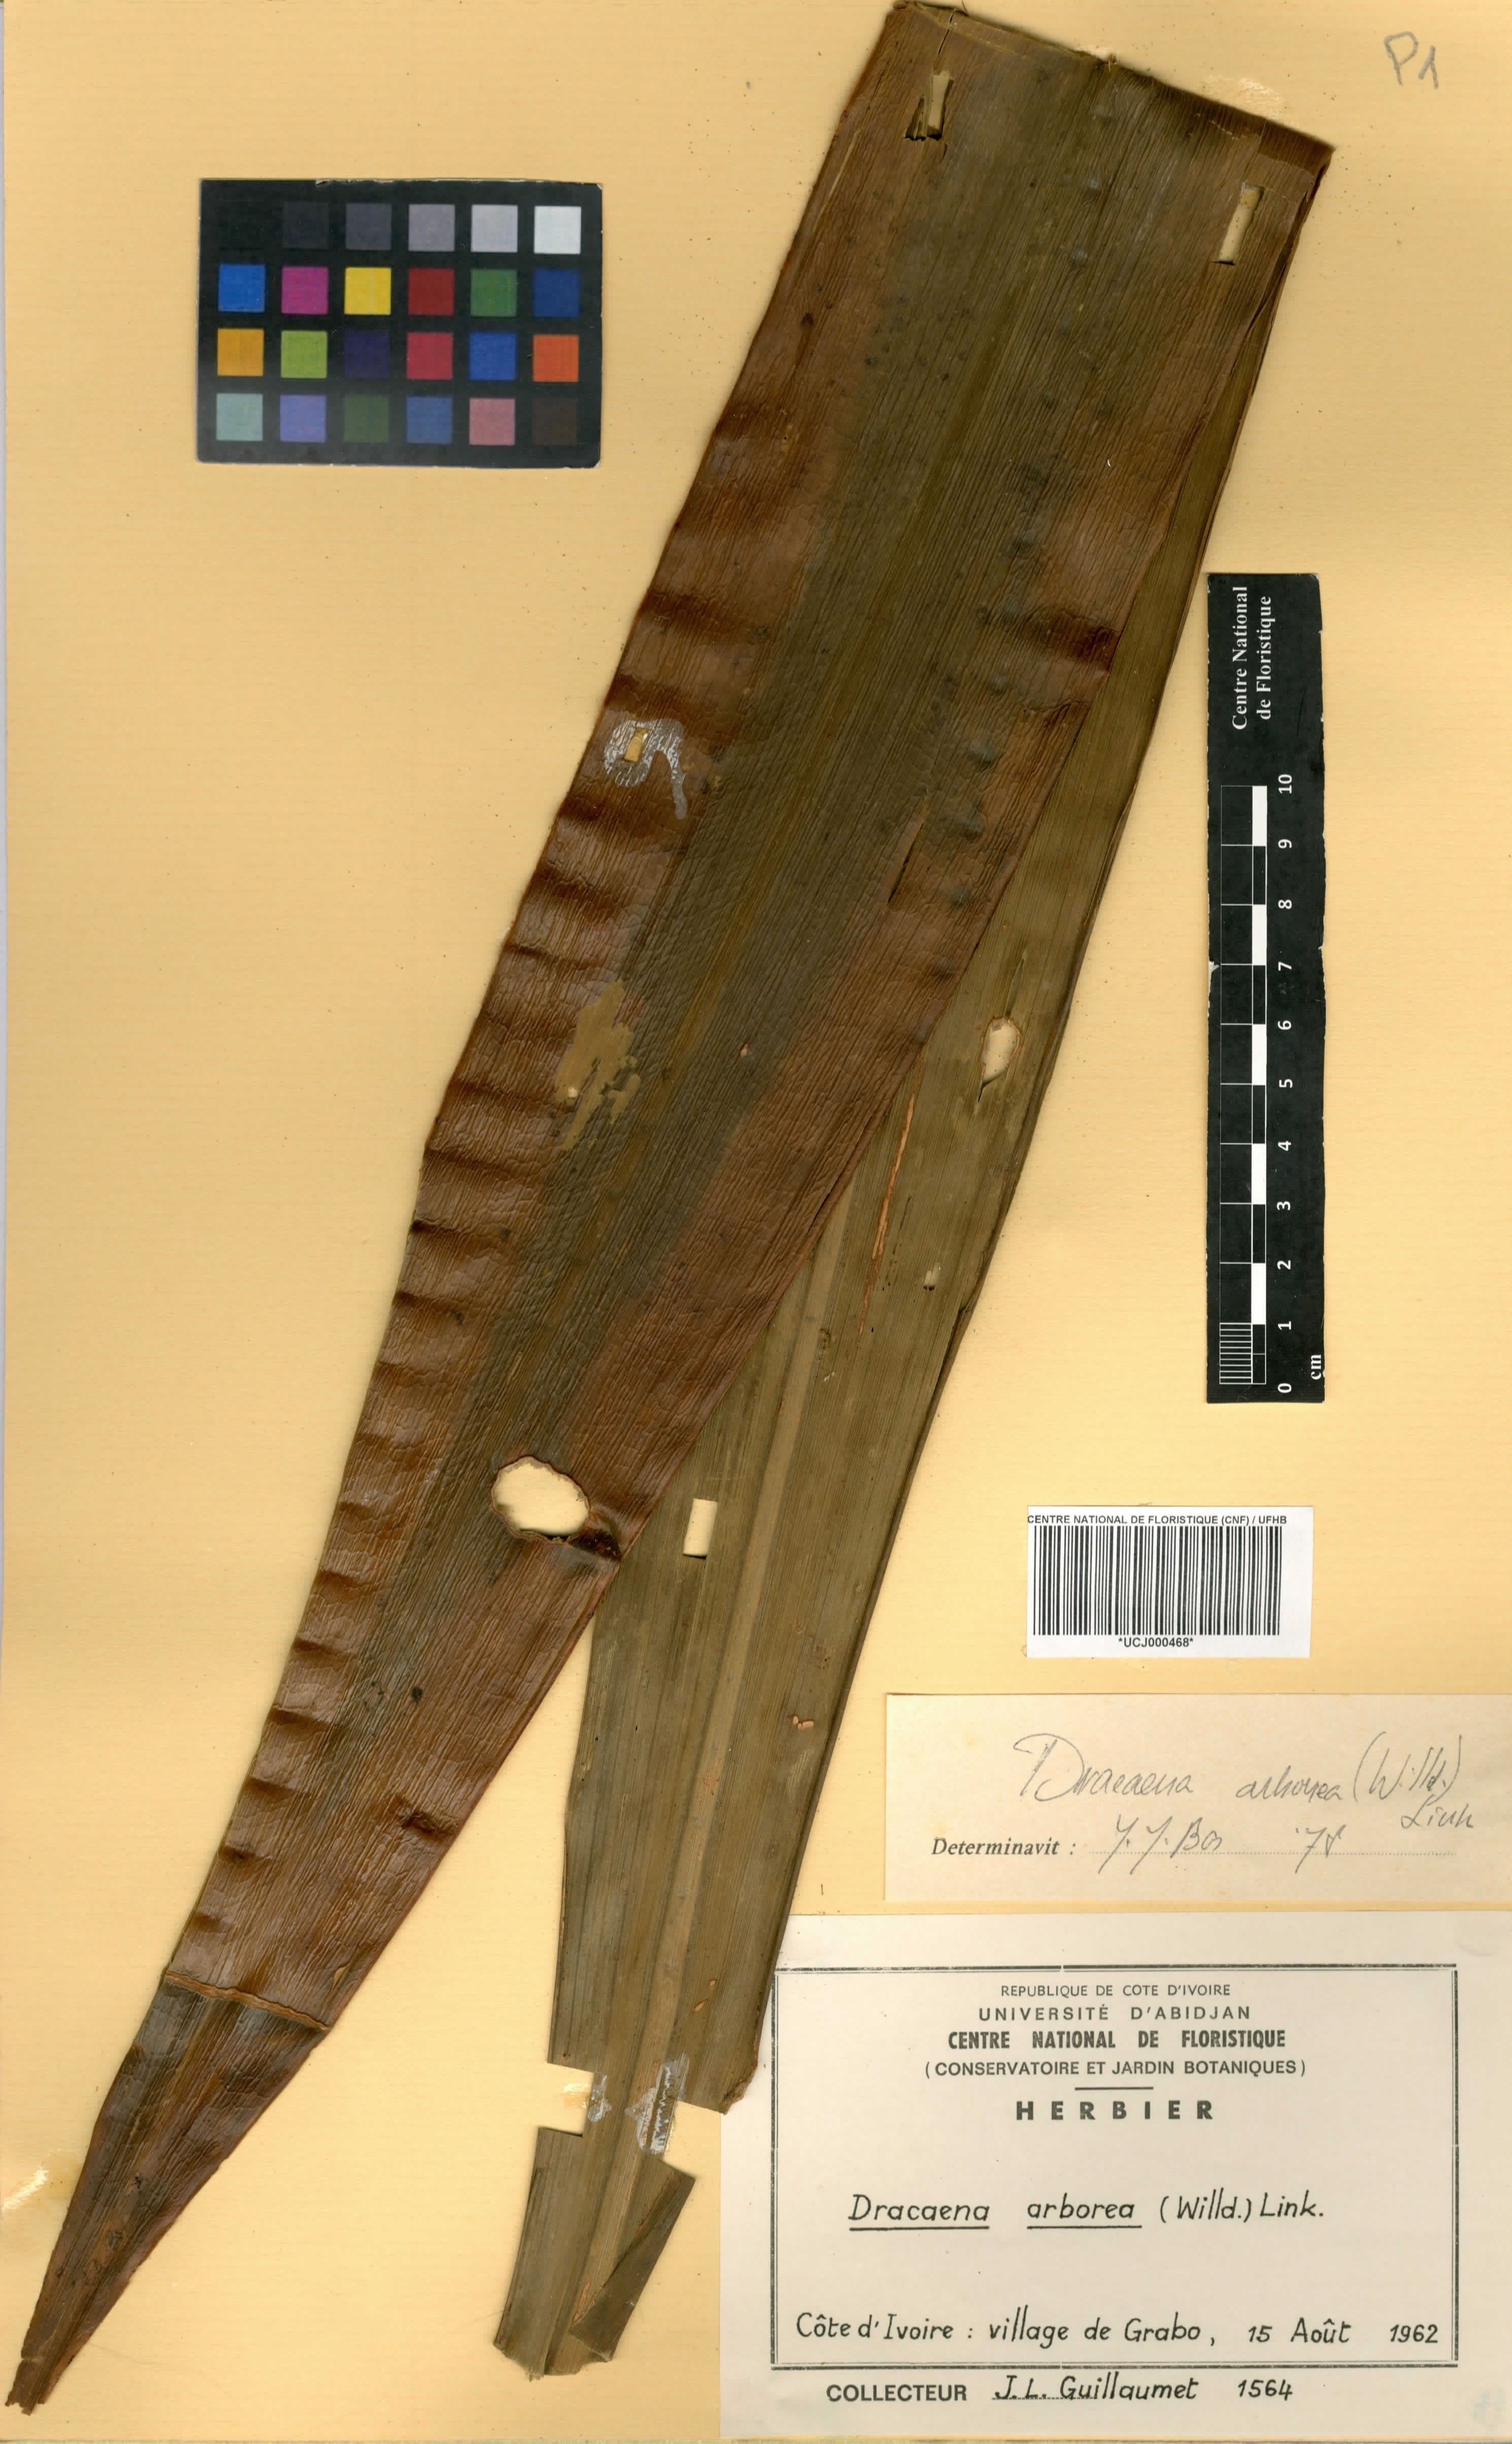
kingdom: Plantae
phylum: Tracheophyta
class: Liliopsida
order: Asparagales
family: Asparagaceae
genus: Dracaena
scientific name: Dracaena arborea
